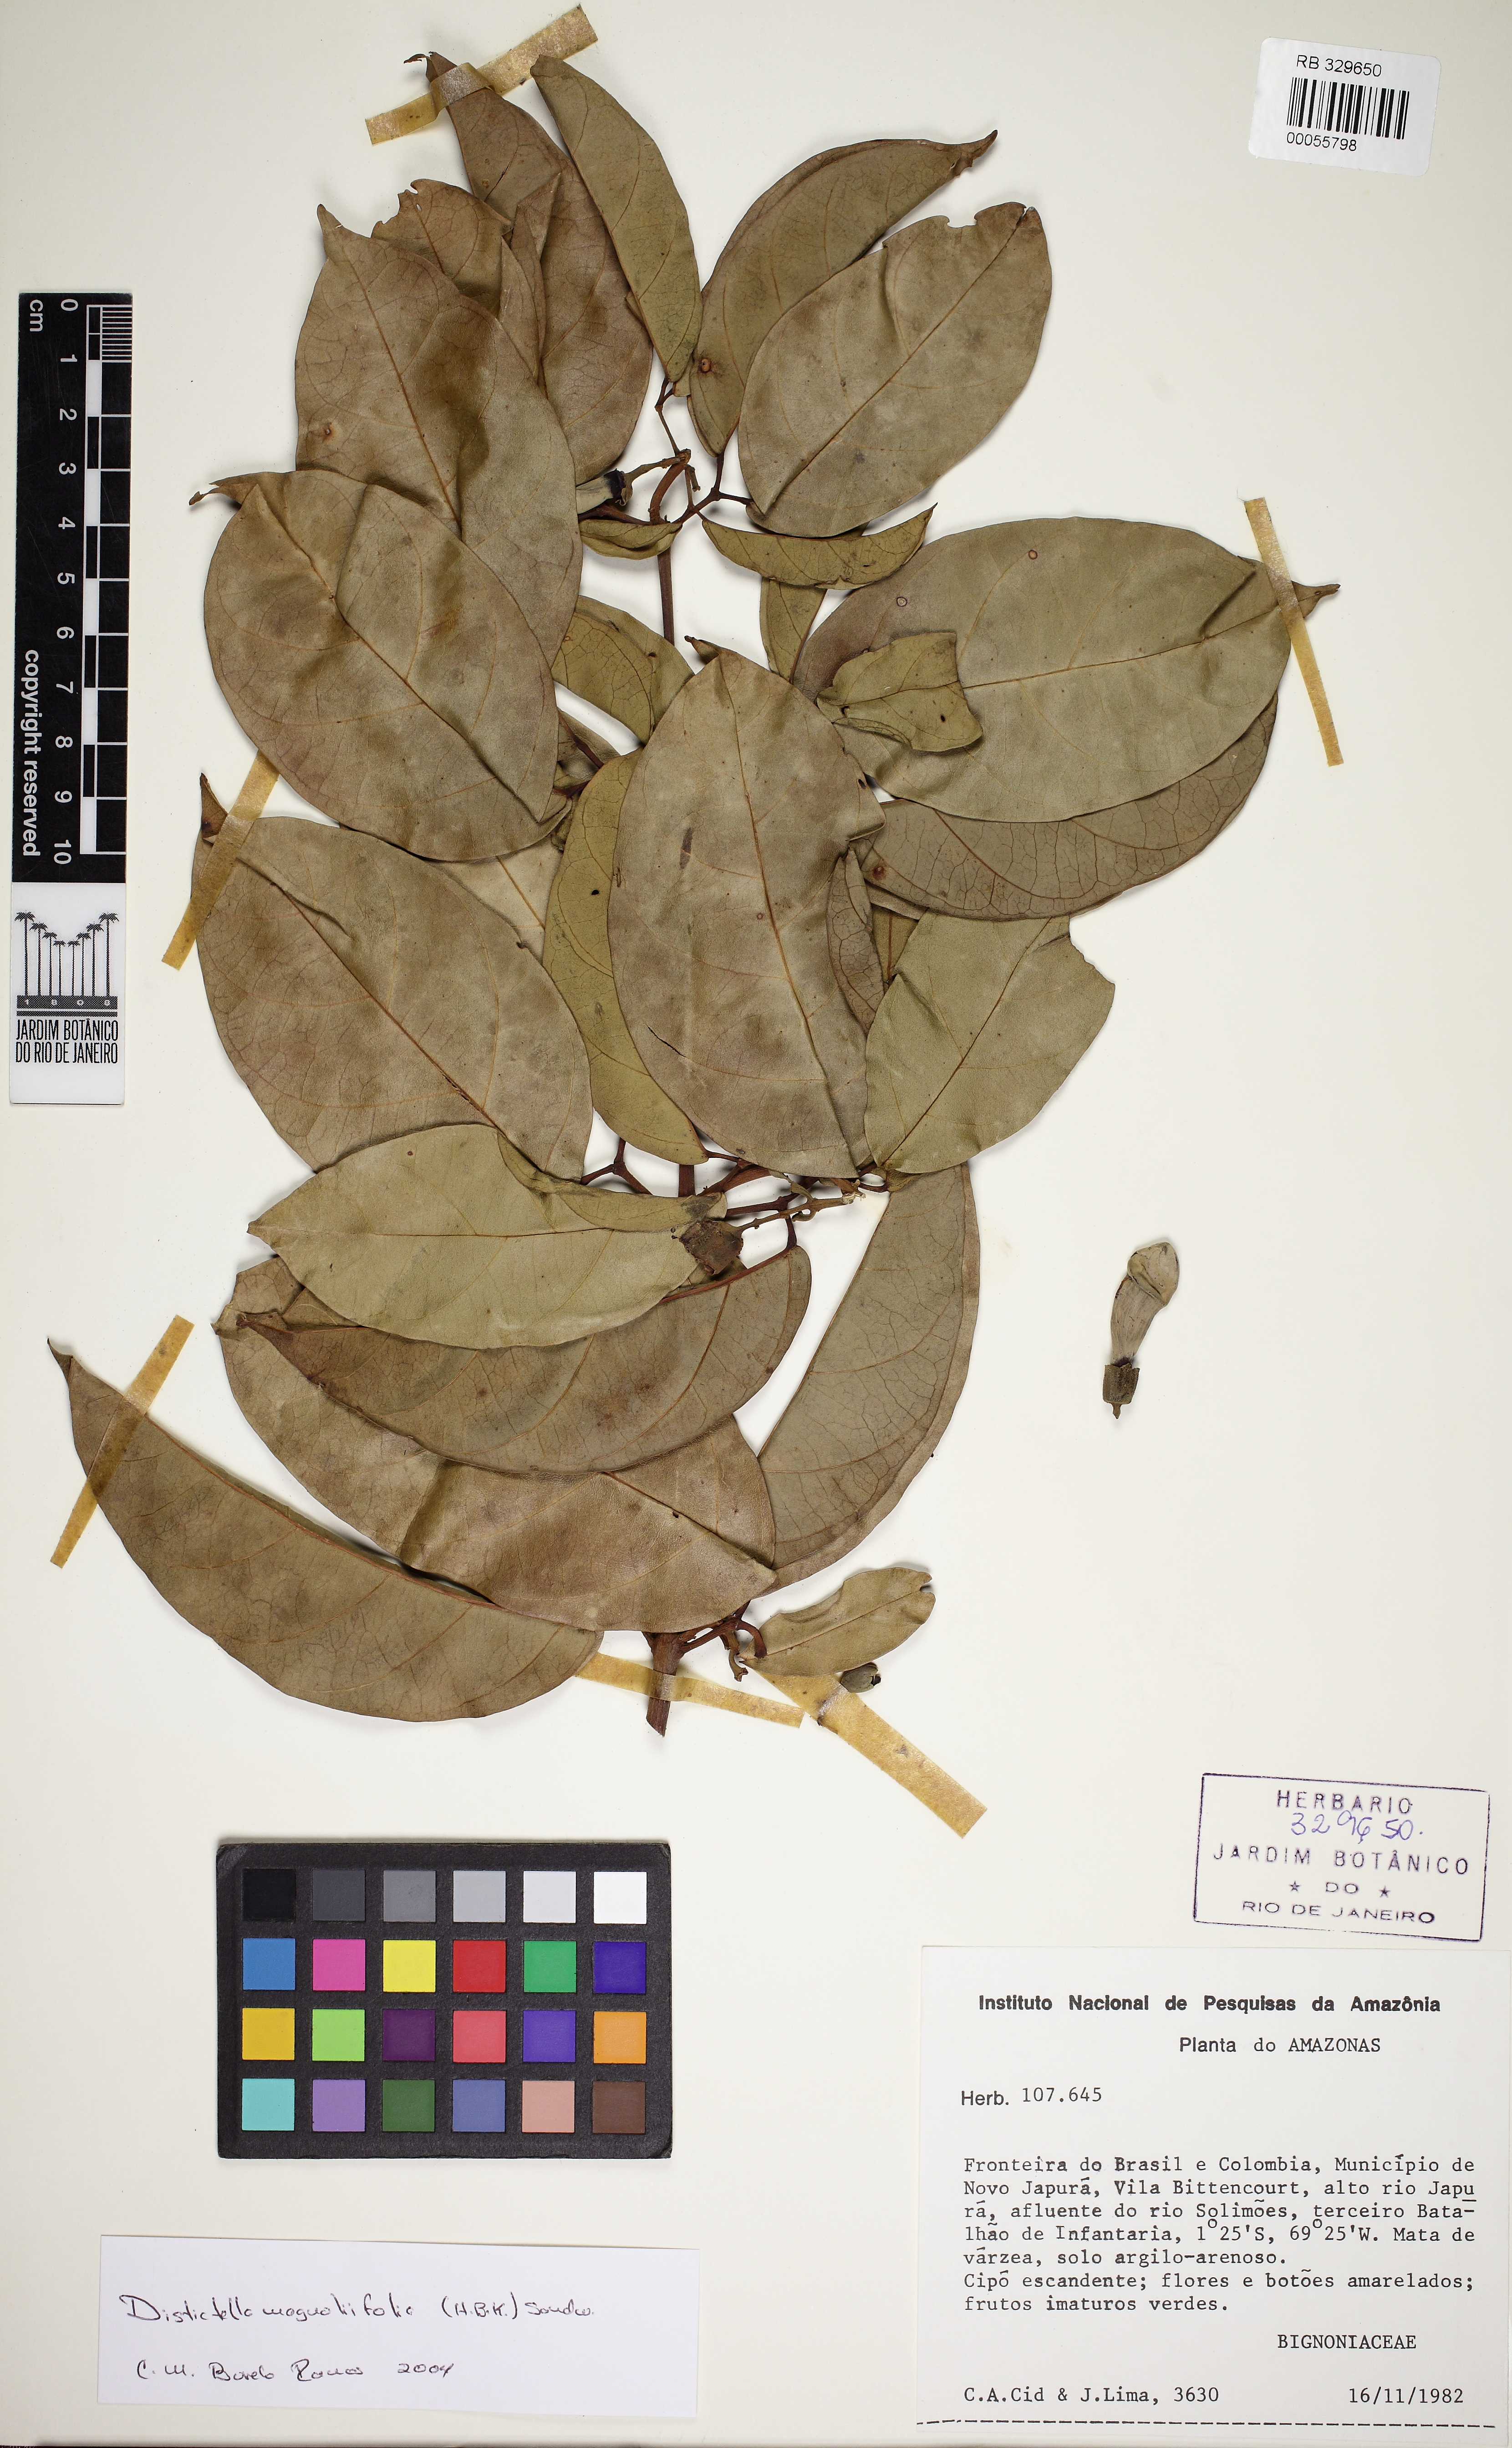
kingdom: Plantae
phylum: Tracheophyta
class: Magnoliopsida
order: Lamiales
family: Bignoniaceae
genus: Amphilophium
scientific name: Amphilophium magnoliifolium
